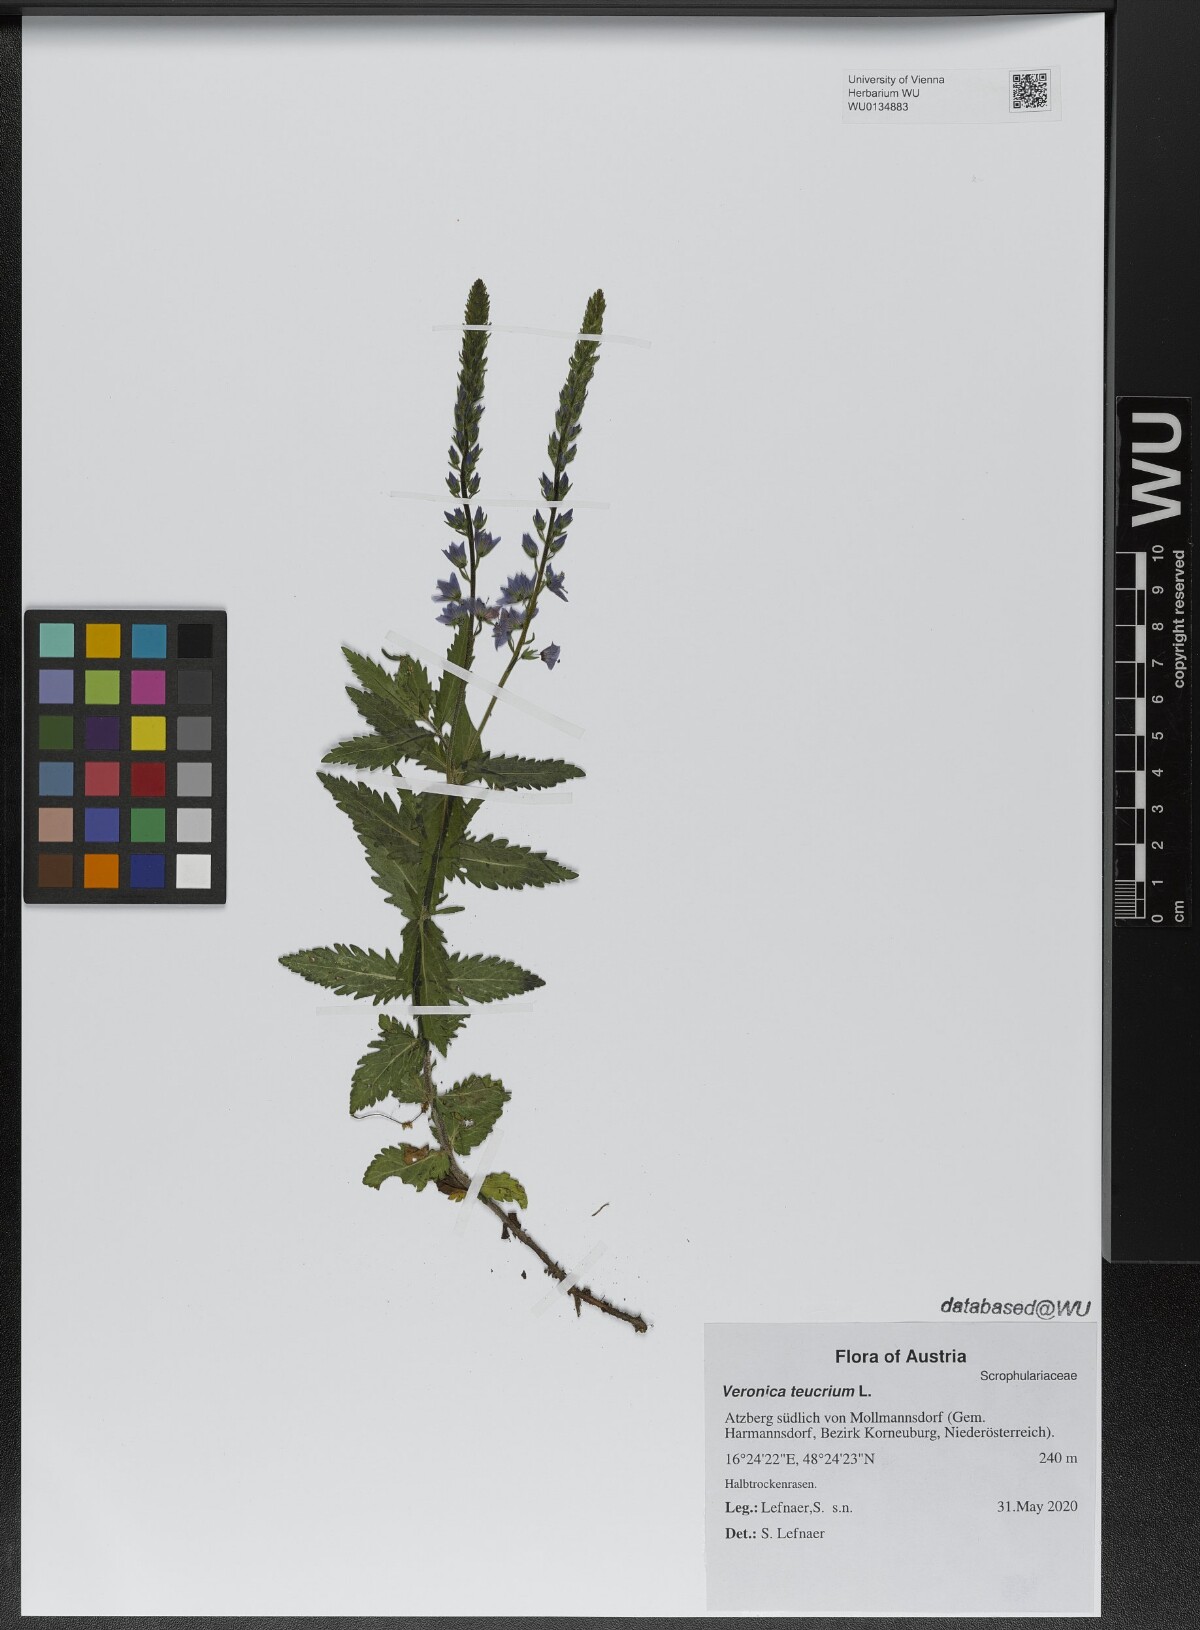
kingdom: Plantae
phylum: Tracheophyta
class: Magnoliopsida
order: Lamiales
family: Plantaginaceae
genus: Veronica
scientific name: Veronica teucrium
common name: Large speedwell
